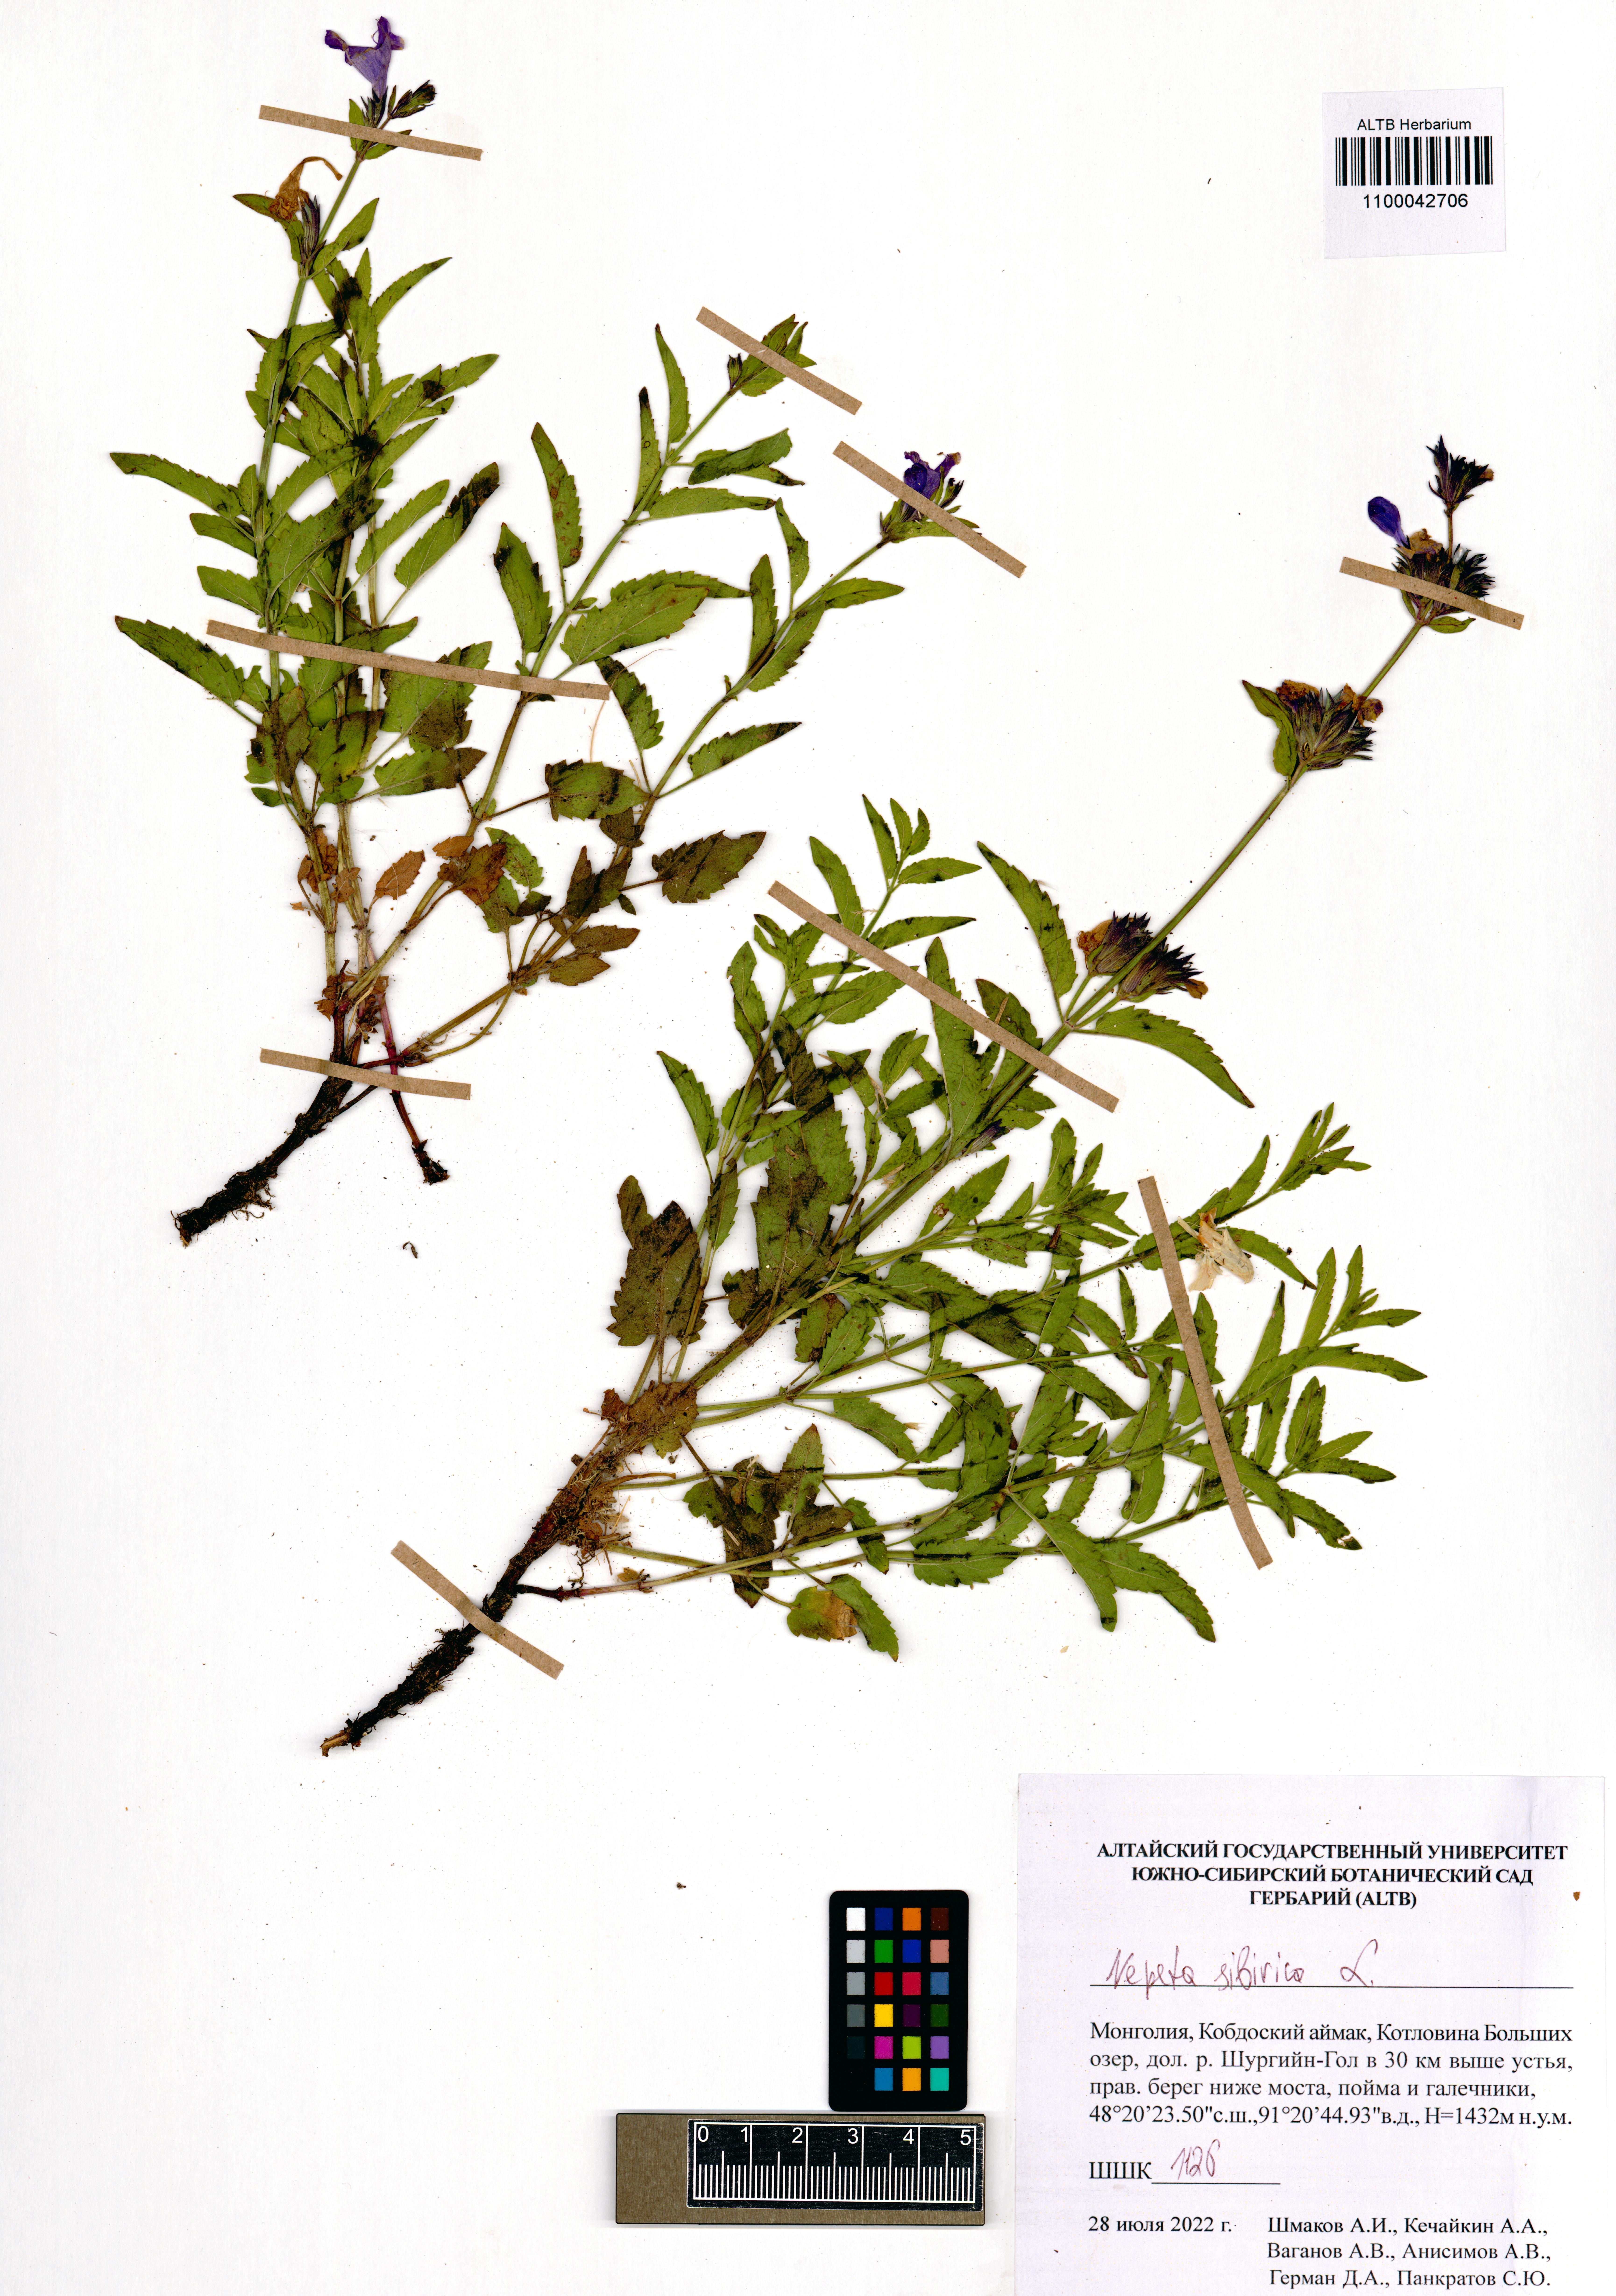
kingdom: Plantae
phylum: Tracheophyta
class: Magnoliopsida
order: Lamiales
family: Lamiaceae
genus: Nepeta
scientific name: Nepeta sibirica
